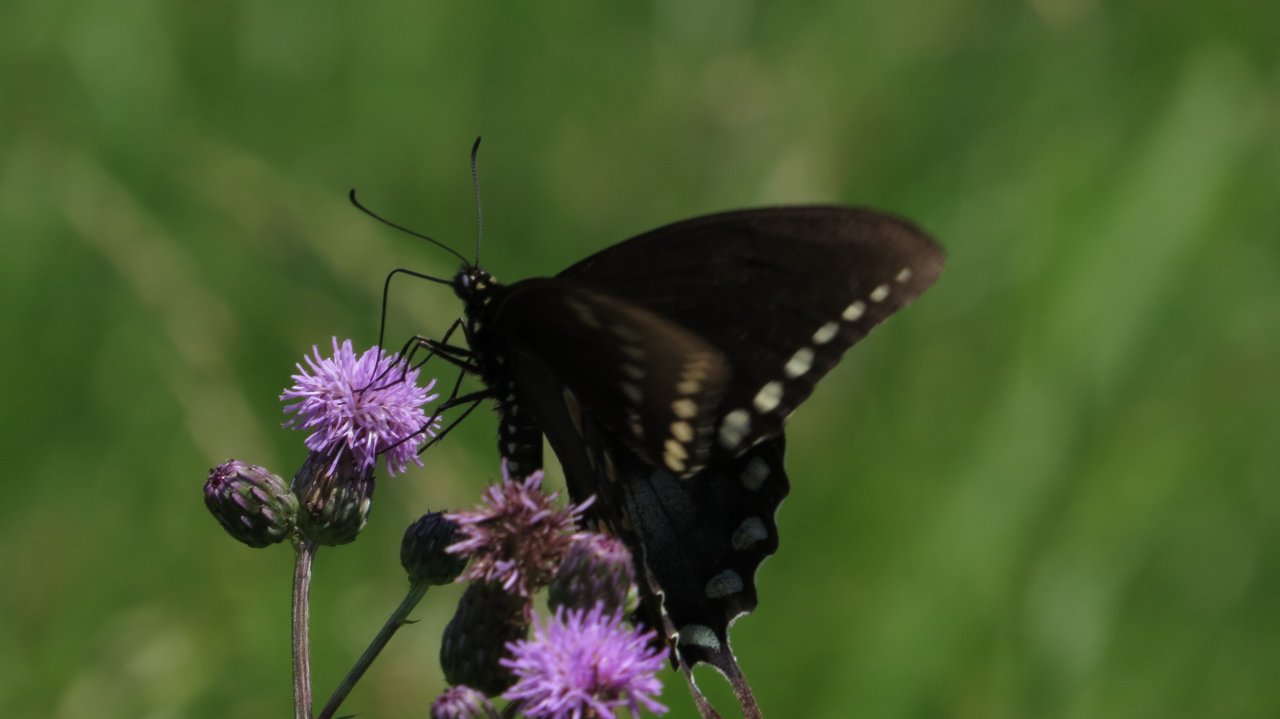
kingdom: Animalia
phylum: Arthropoda
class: Insecta
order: Lepidoptera
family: Papilionidae
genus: Pterourus
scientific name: Pterourus troilus
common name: Spicebush Swallowtail
